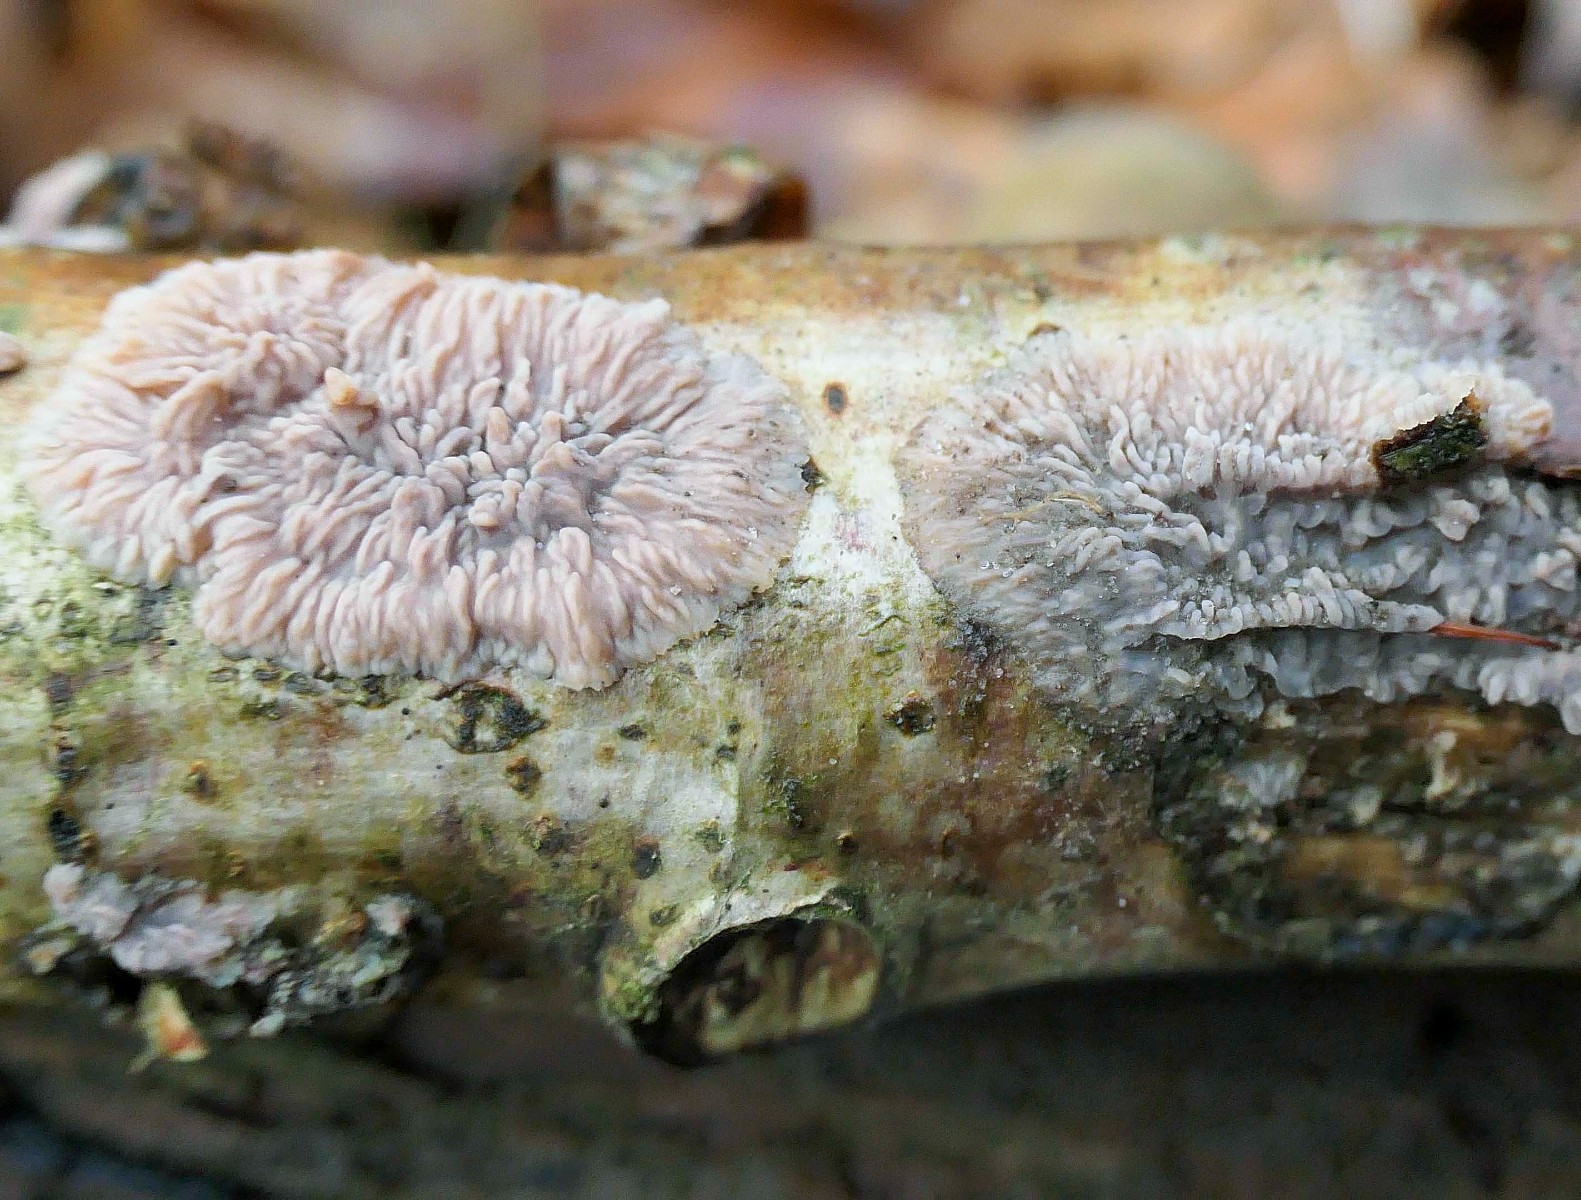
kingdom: Fungi
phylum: Basidiomycota
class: Agaricomycetes
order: Polyporales
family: Meruliaceae
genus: Phlebia
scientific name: Phlebia radiata
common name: stråle-åresvamp
